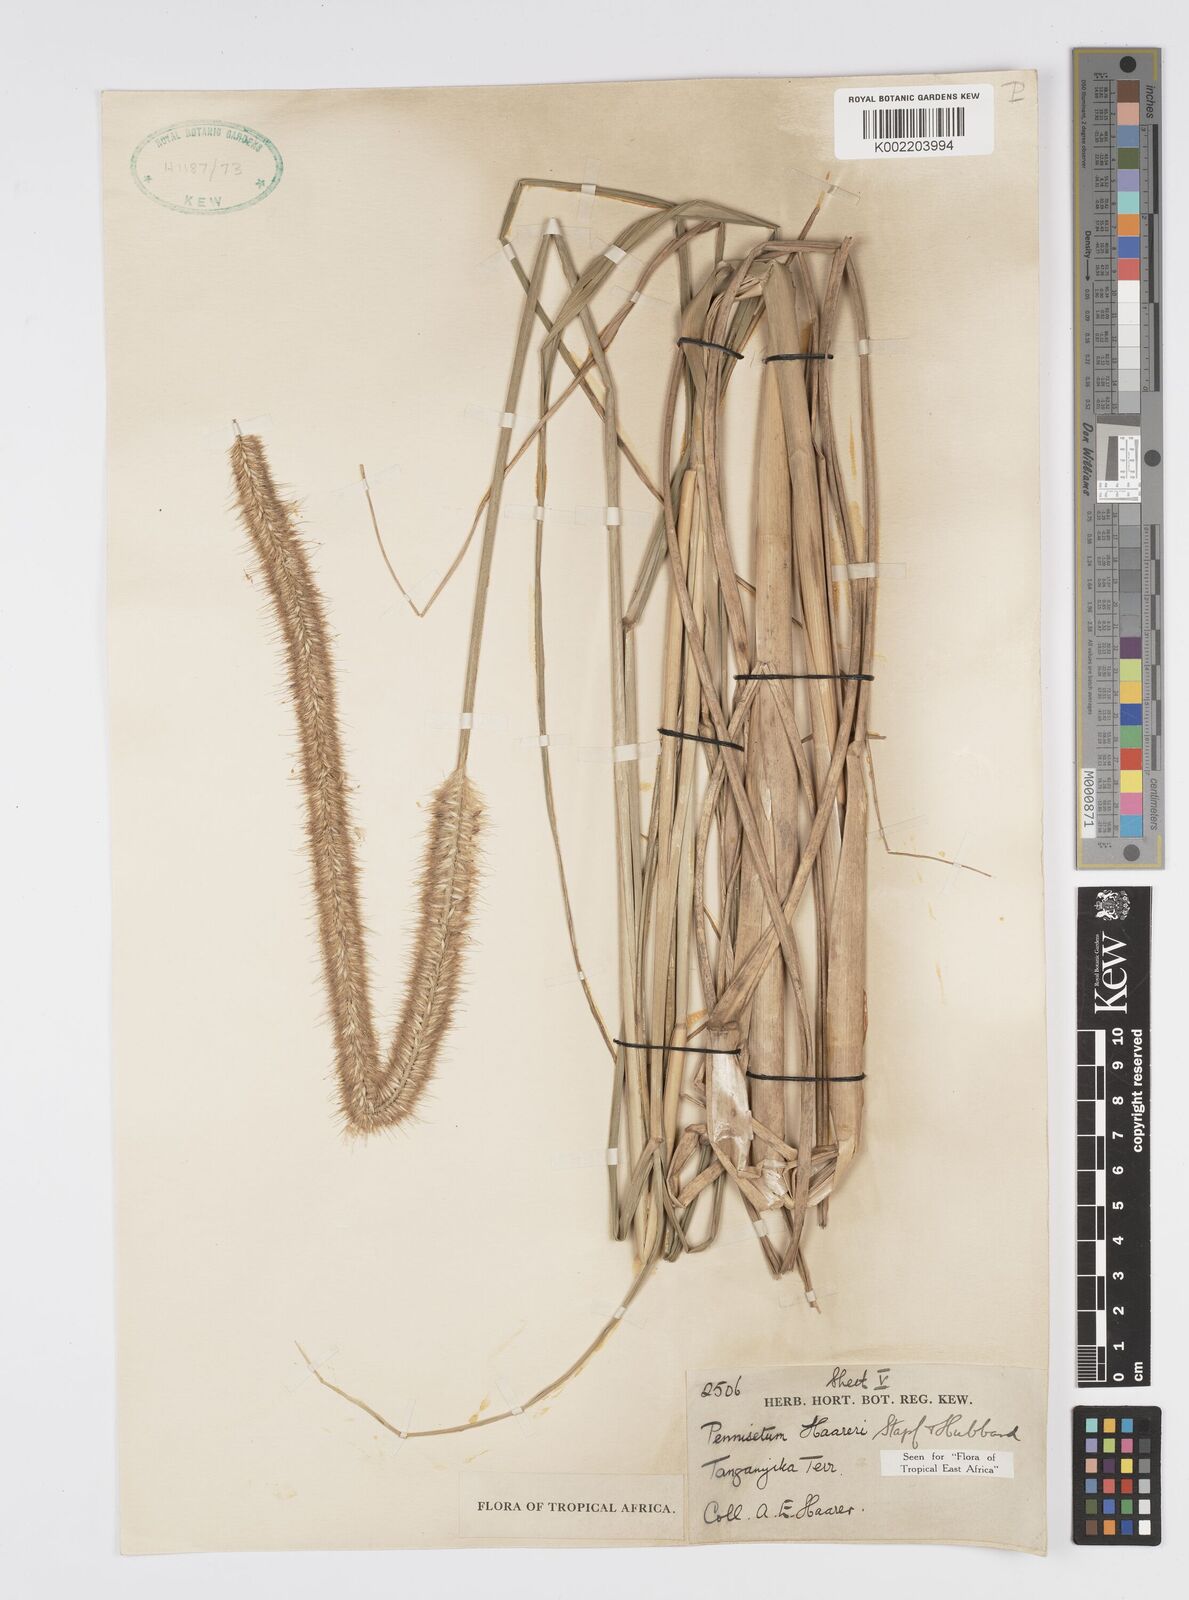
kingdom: Plantae
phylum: Tracheophyta
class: Liliopsida
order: Poales
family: Poaceae
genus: Cenchrus
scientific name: Cenchrus caudatus
